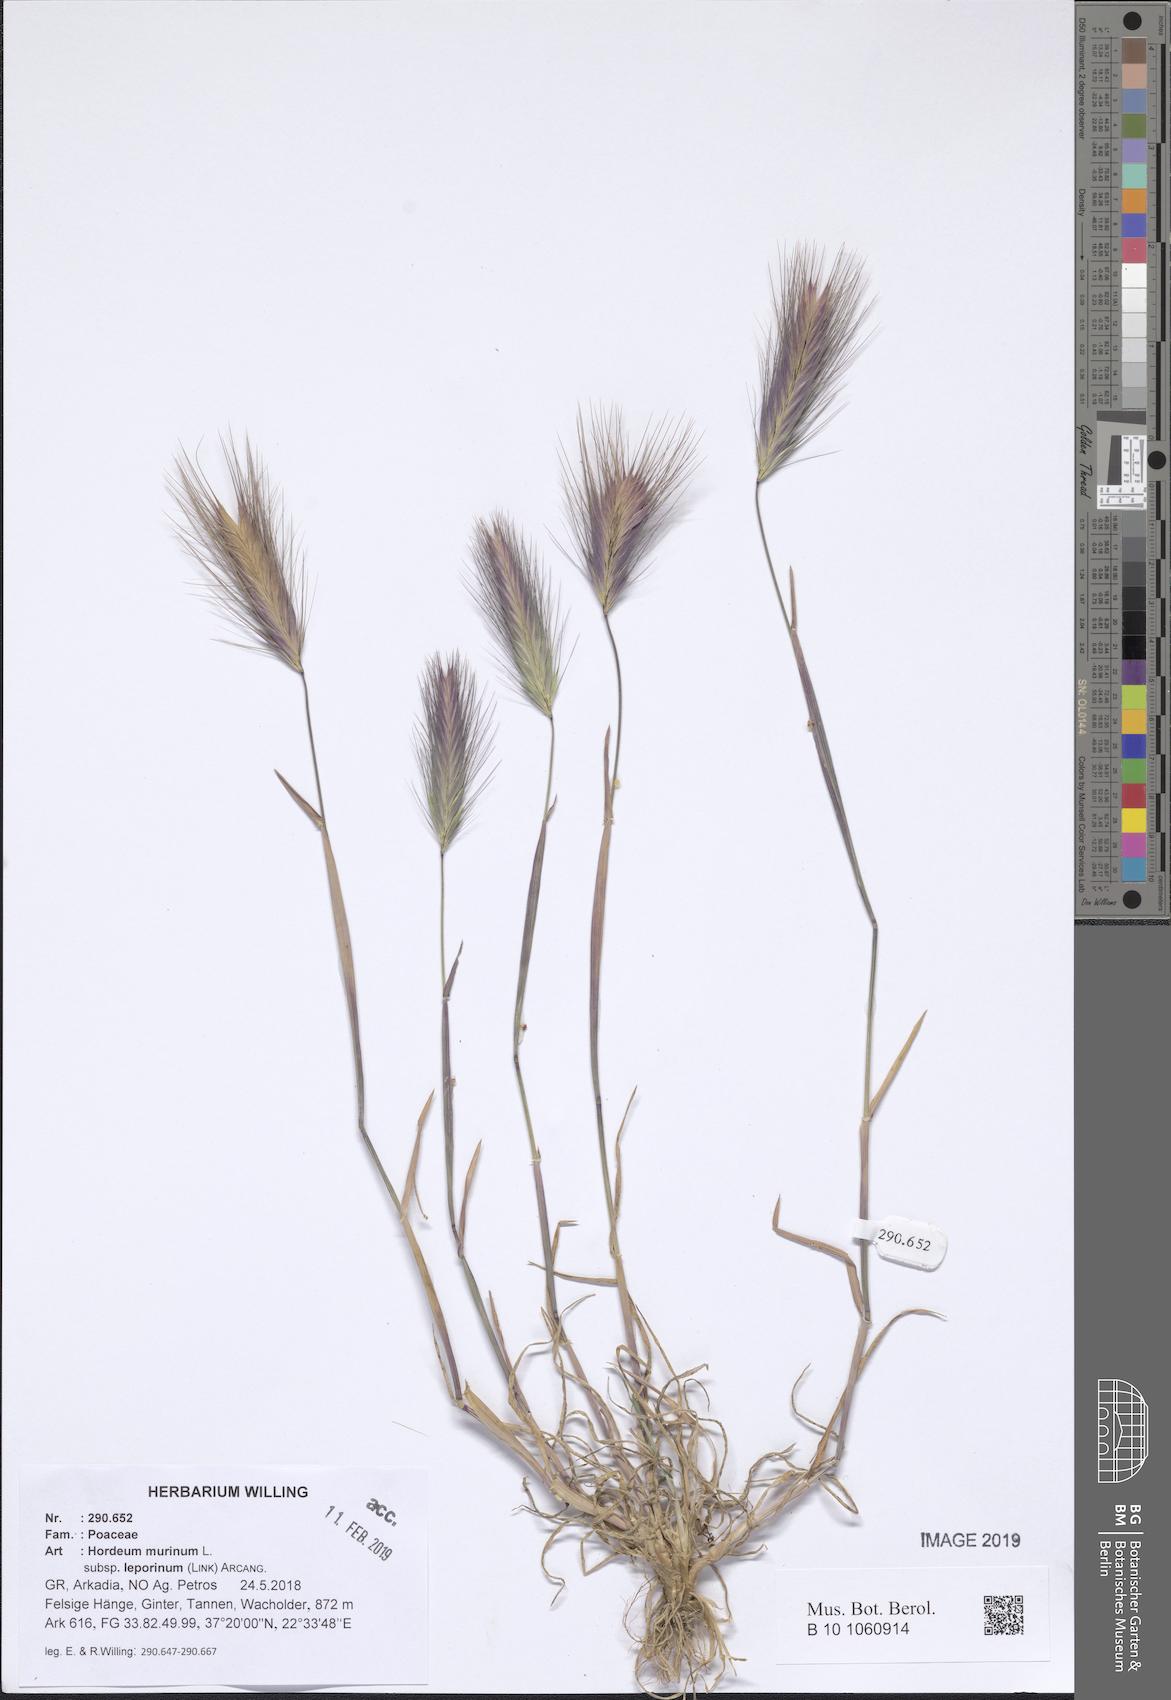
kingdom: Plantae
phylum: Tracheophyta
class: Liliopsida
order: Poales
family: Poaceae
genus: Hordeum
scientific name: Hordeum murinum
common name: Wall barley
